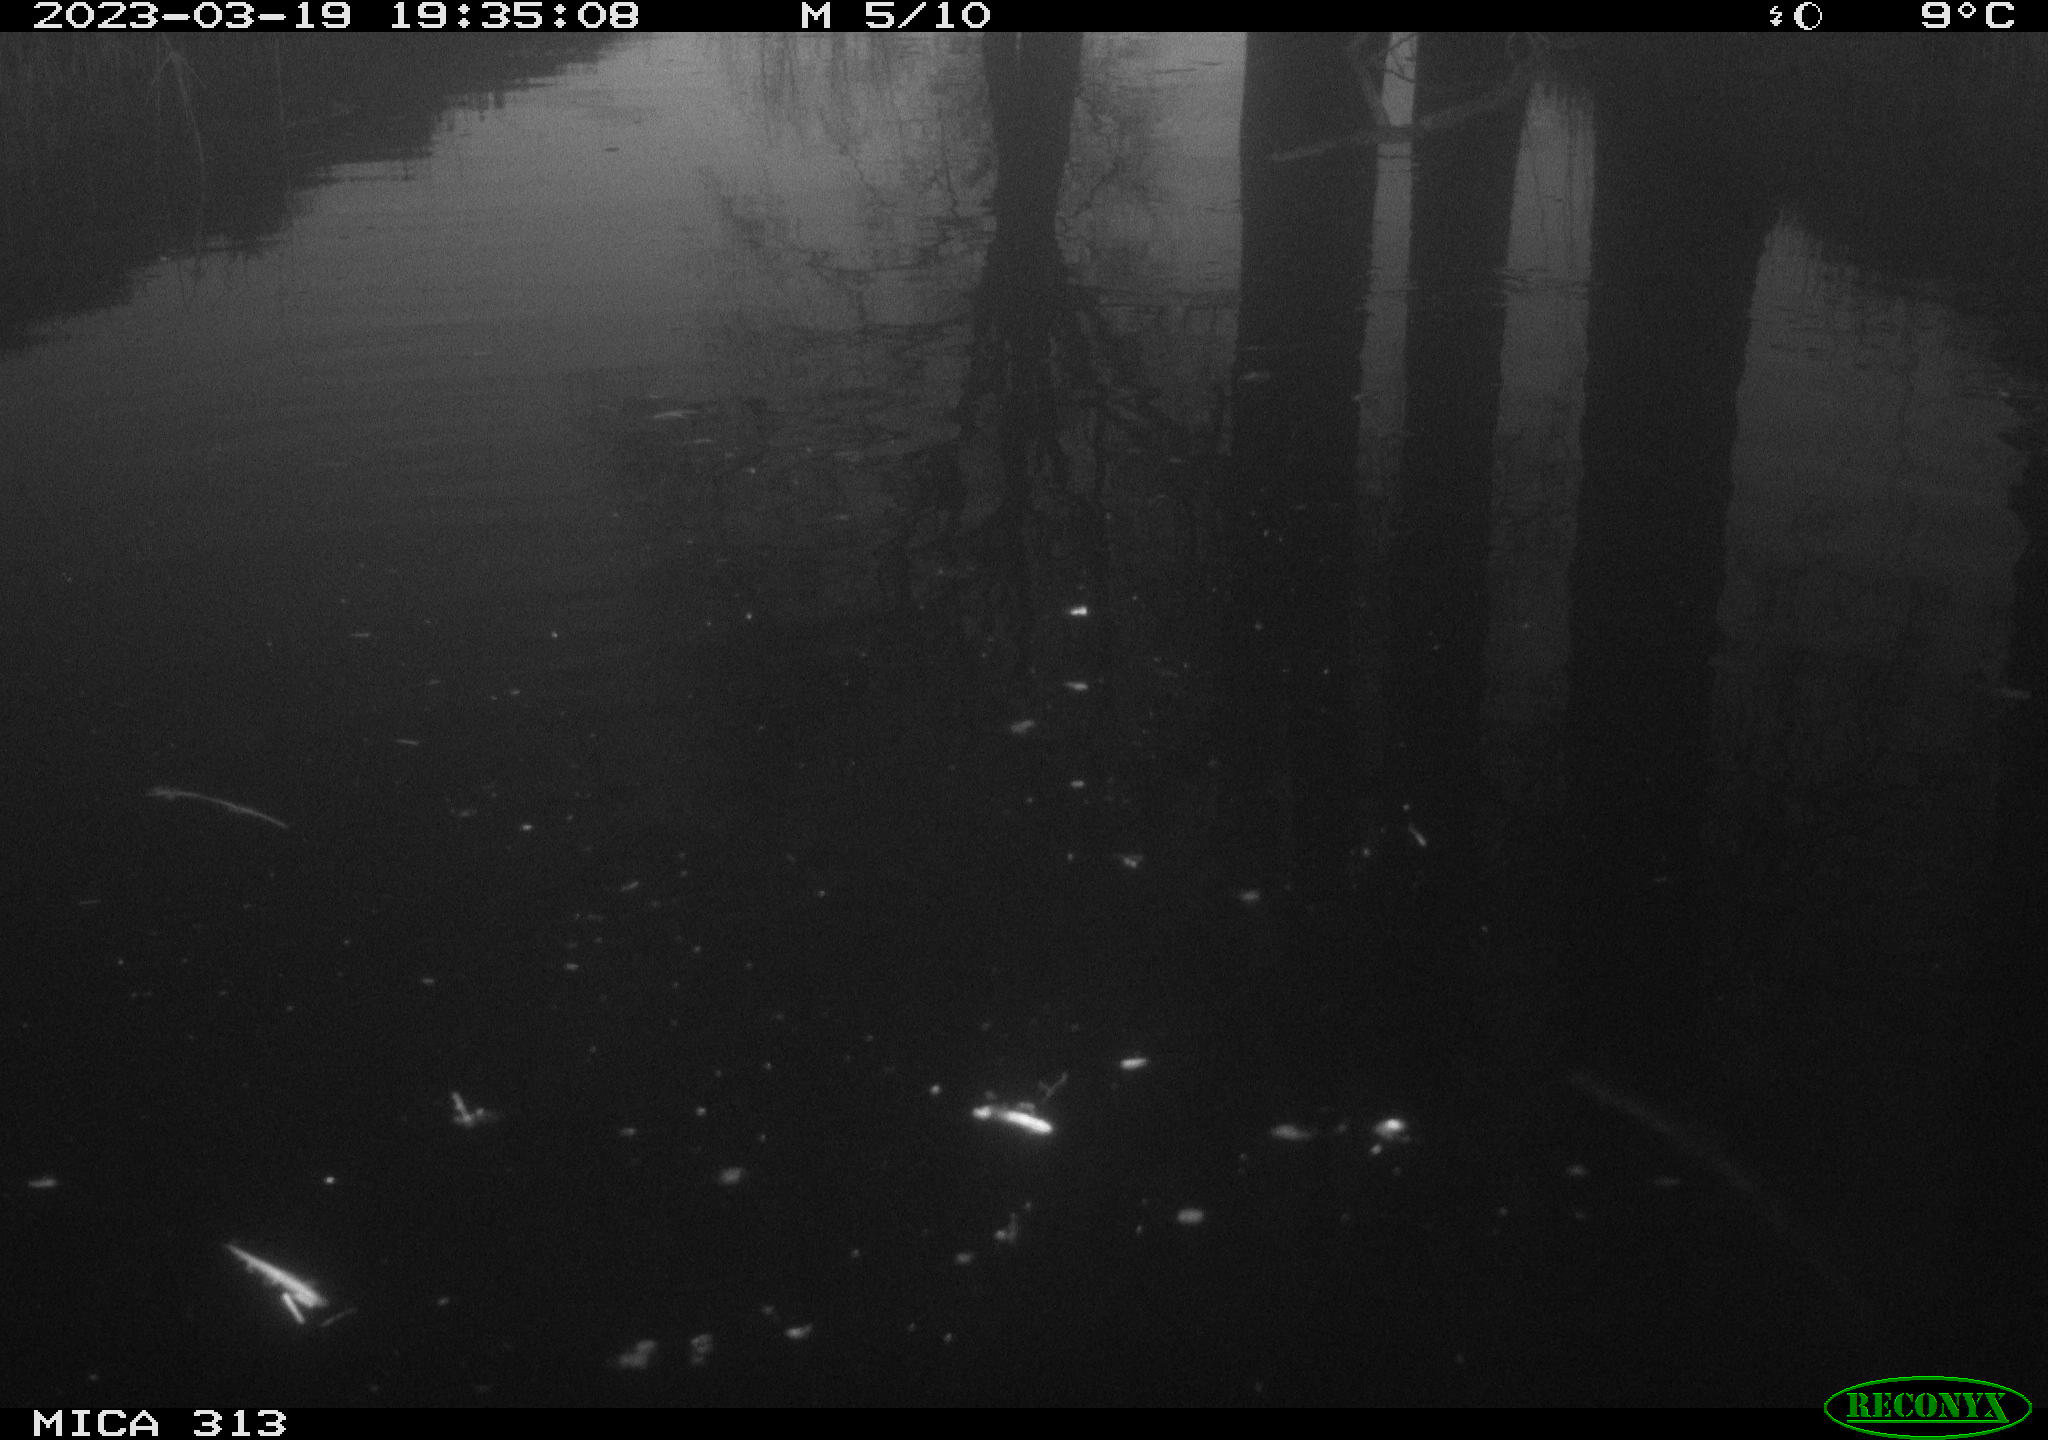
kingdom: Animalia
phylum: Chordata
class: Aves
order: Anseriformes
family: Anatidae
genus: Anas
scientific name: Anas
